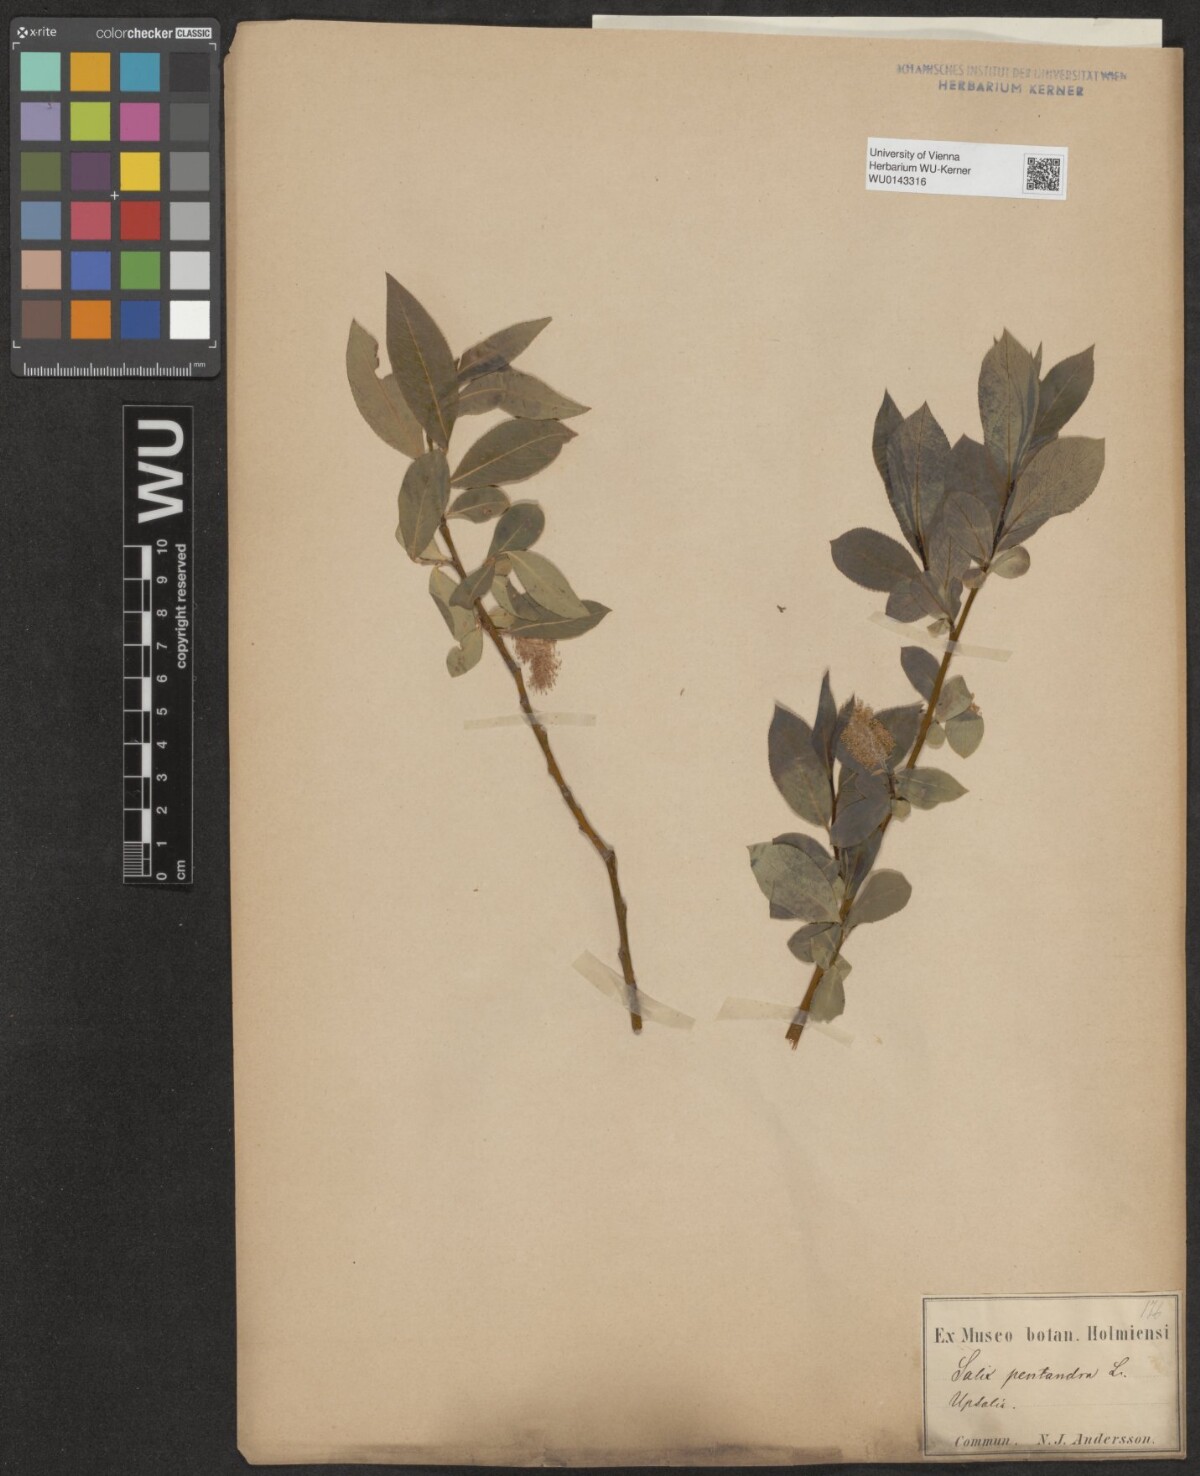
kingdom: Plantae
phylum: Tracheophyta
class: Magnoliopsida
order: Malpighiales
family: Salicaceae
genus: Salix
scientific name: Salix pentandra
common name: Bay willow
